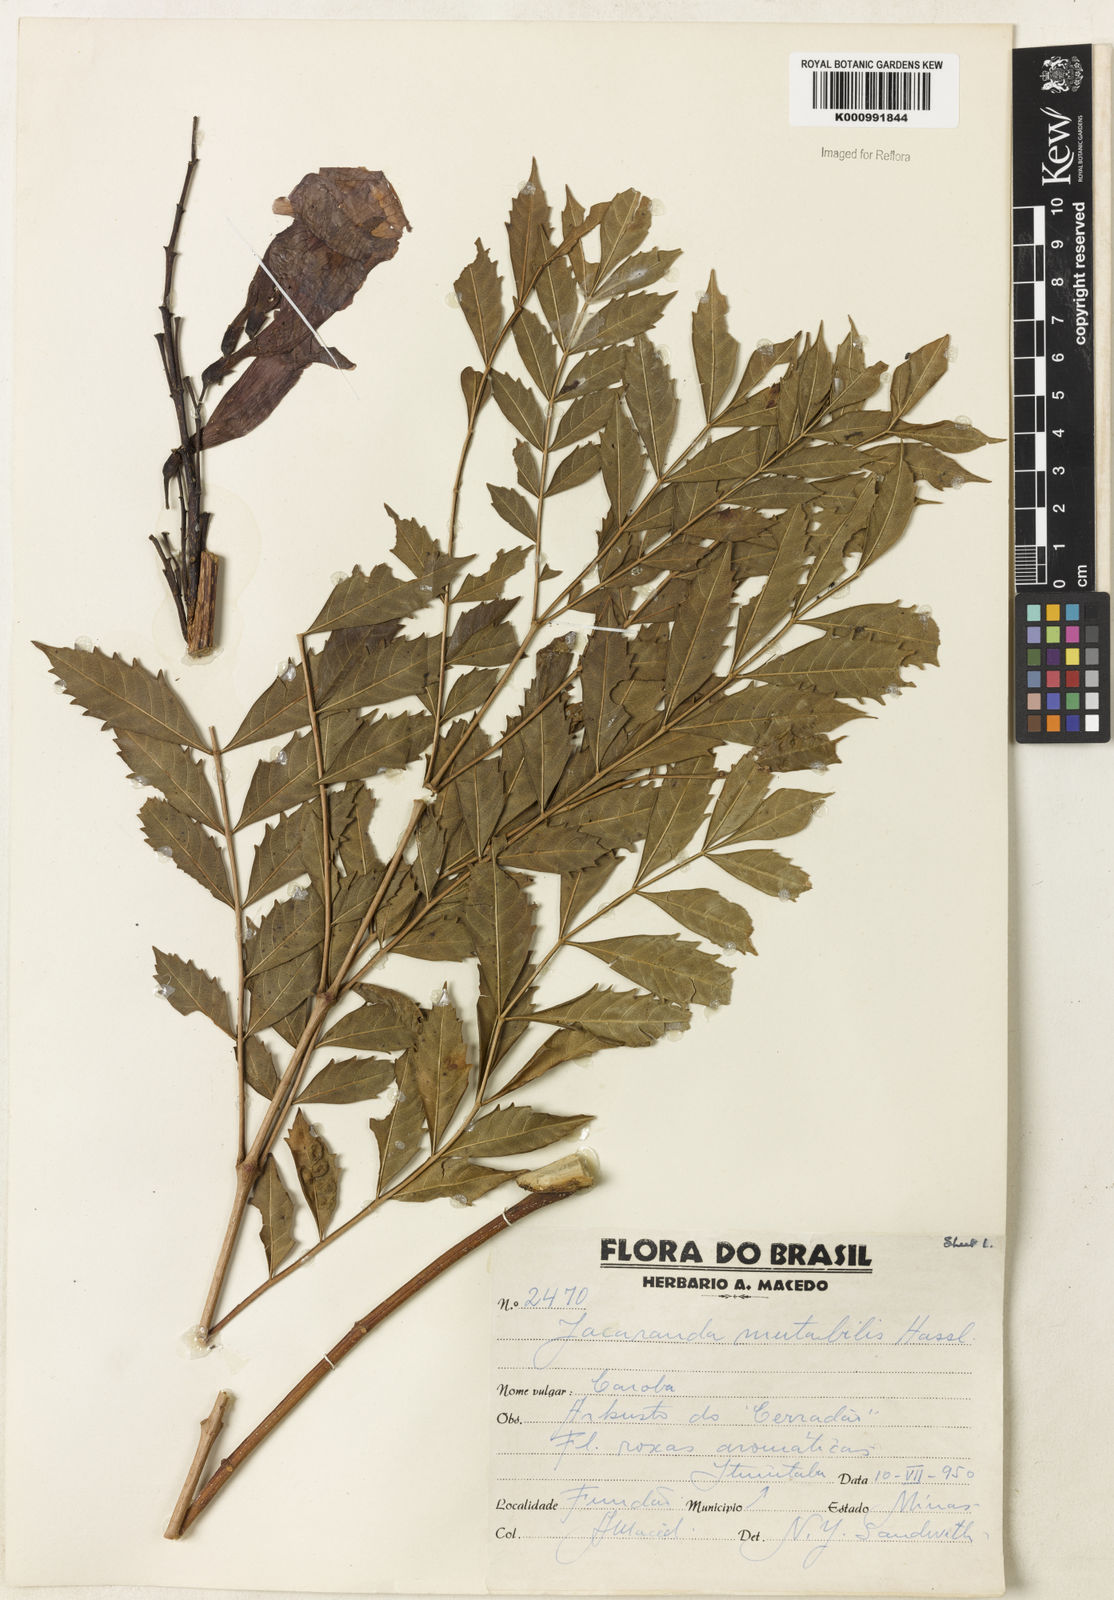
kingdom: Plantae
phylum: Tracheophyta
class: Magnoliopsida
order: Lamiales
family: Bignoniaceae
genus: Jacaranda
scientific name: Jacaranda mutabilis
